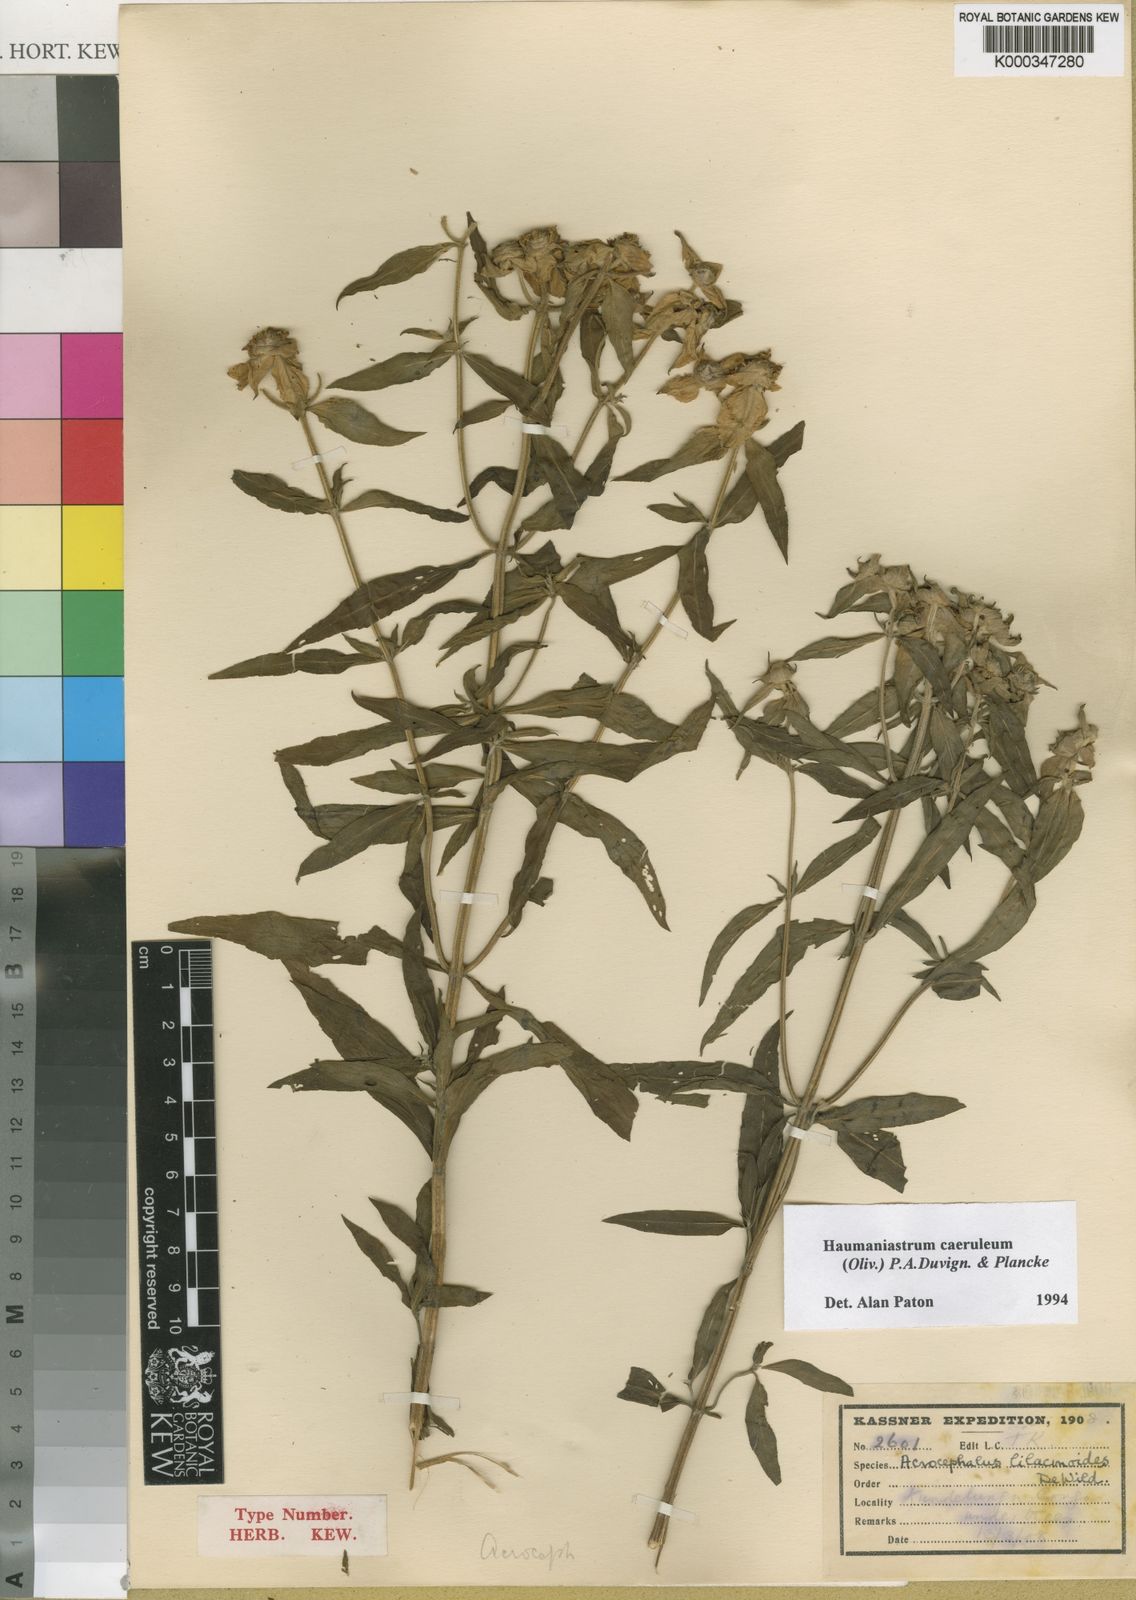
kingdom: Plantae
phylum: Tracheophyta
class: Magnoliopsida
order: Lamiales
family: Lamiaceae
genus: Haumaniastrum
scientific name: Haumaniastrum caeruleum
